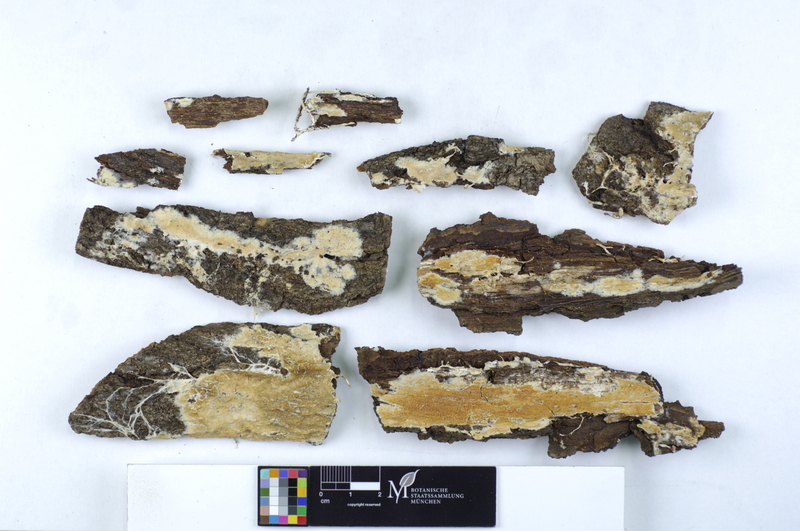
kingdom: Plantae
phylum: Tracheophyta
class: Magnoliopsida
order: Fagales
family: Fagaceae
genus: Quercus
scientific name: Quercus
